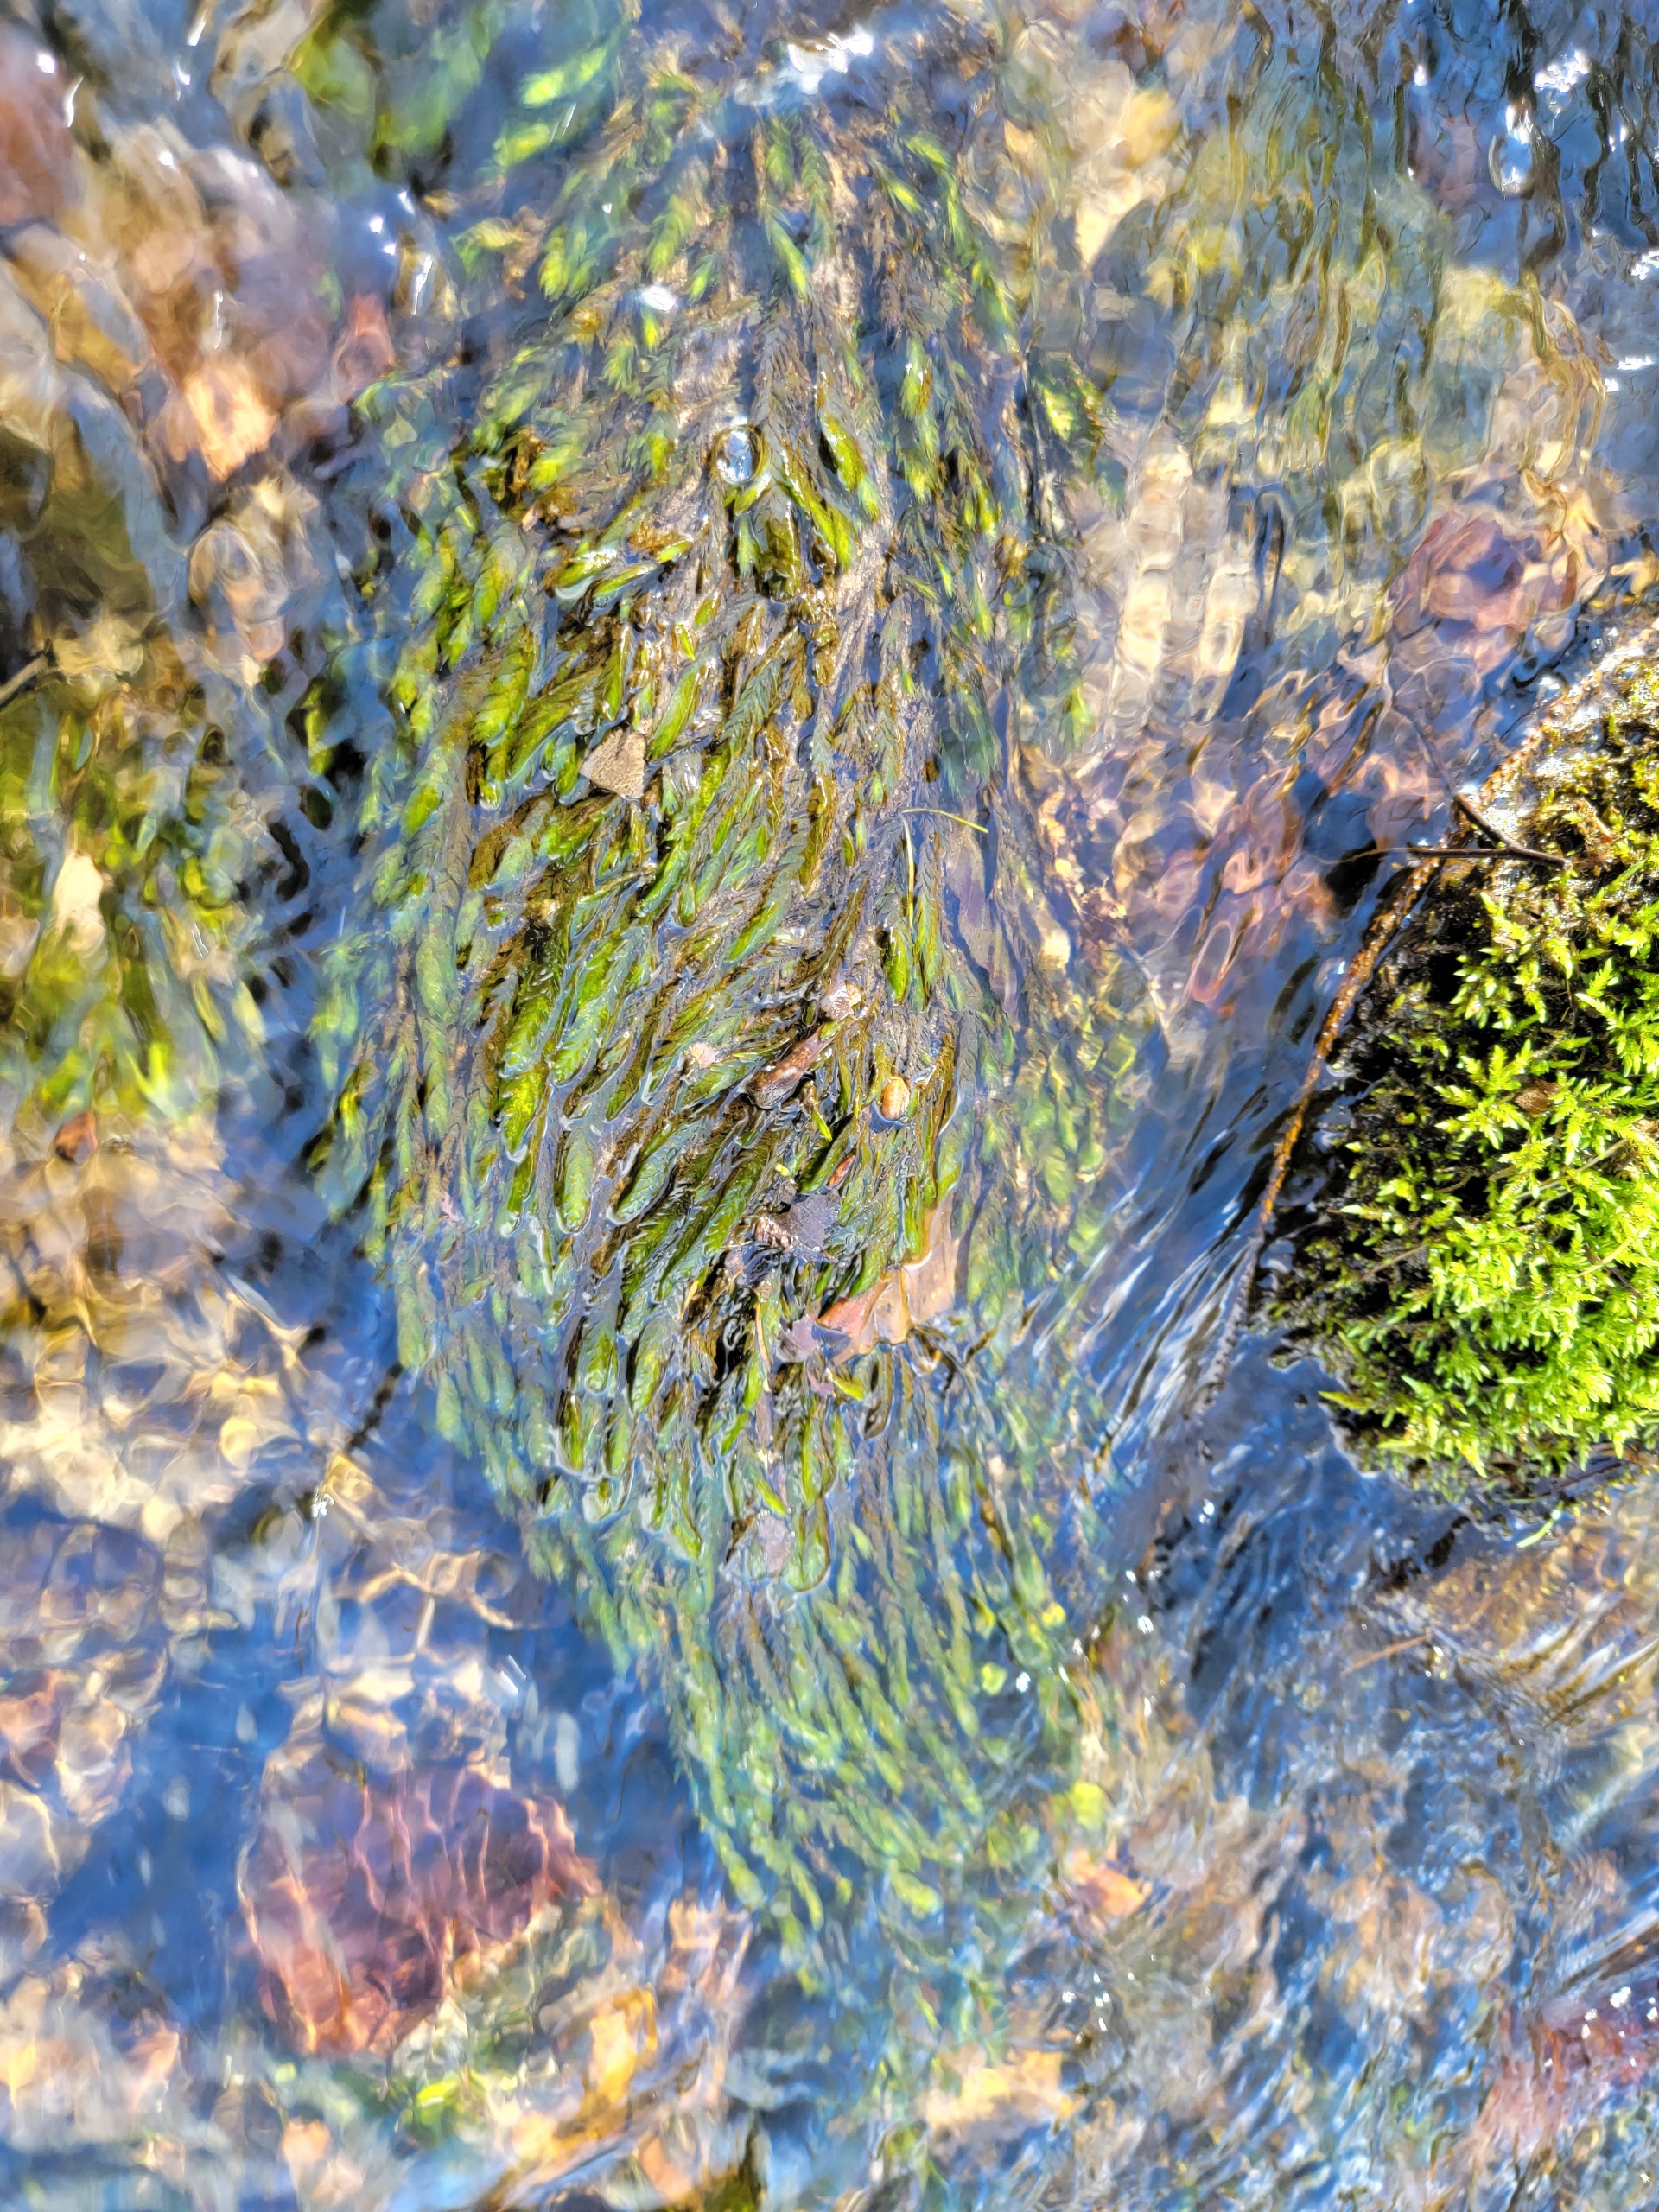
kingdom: Plantae
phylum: Bryophyta
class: Bryopsida
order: Hypnales
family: Fontinalaceae
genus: Fontinalis
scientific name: Fontinalis antipyretica
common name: Stor kildemos
